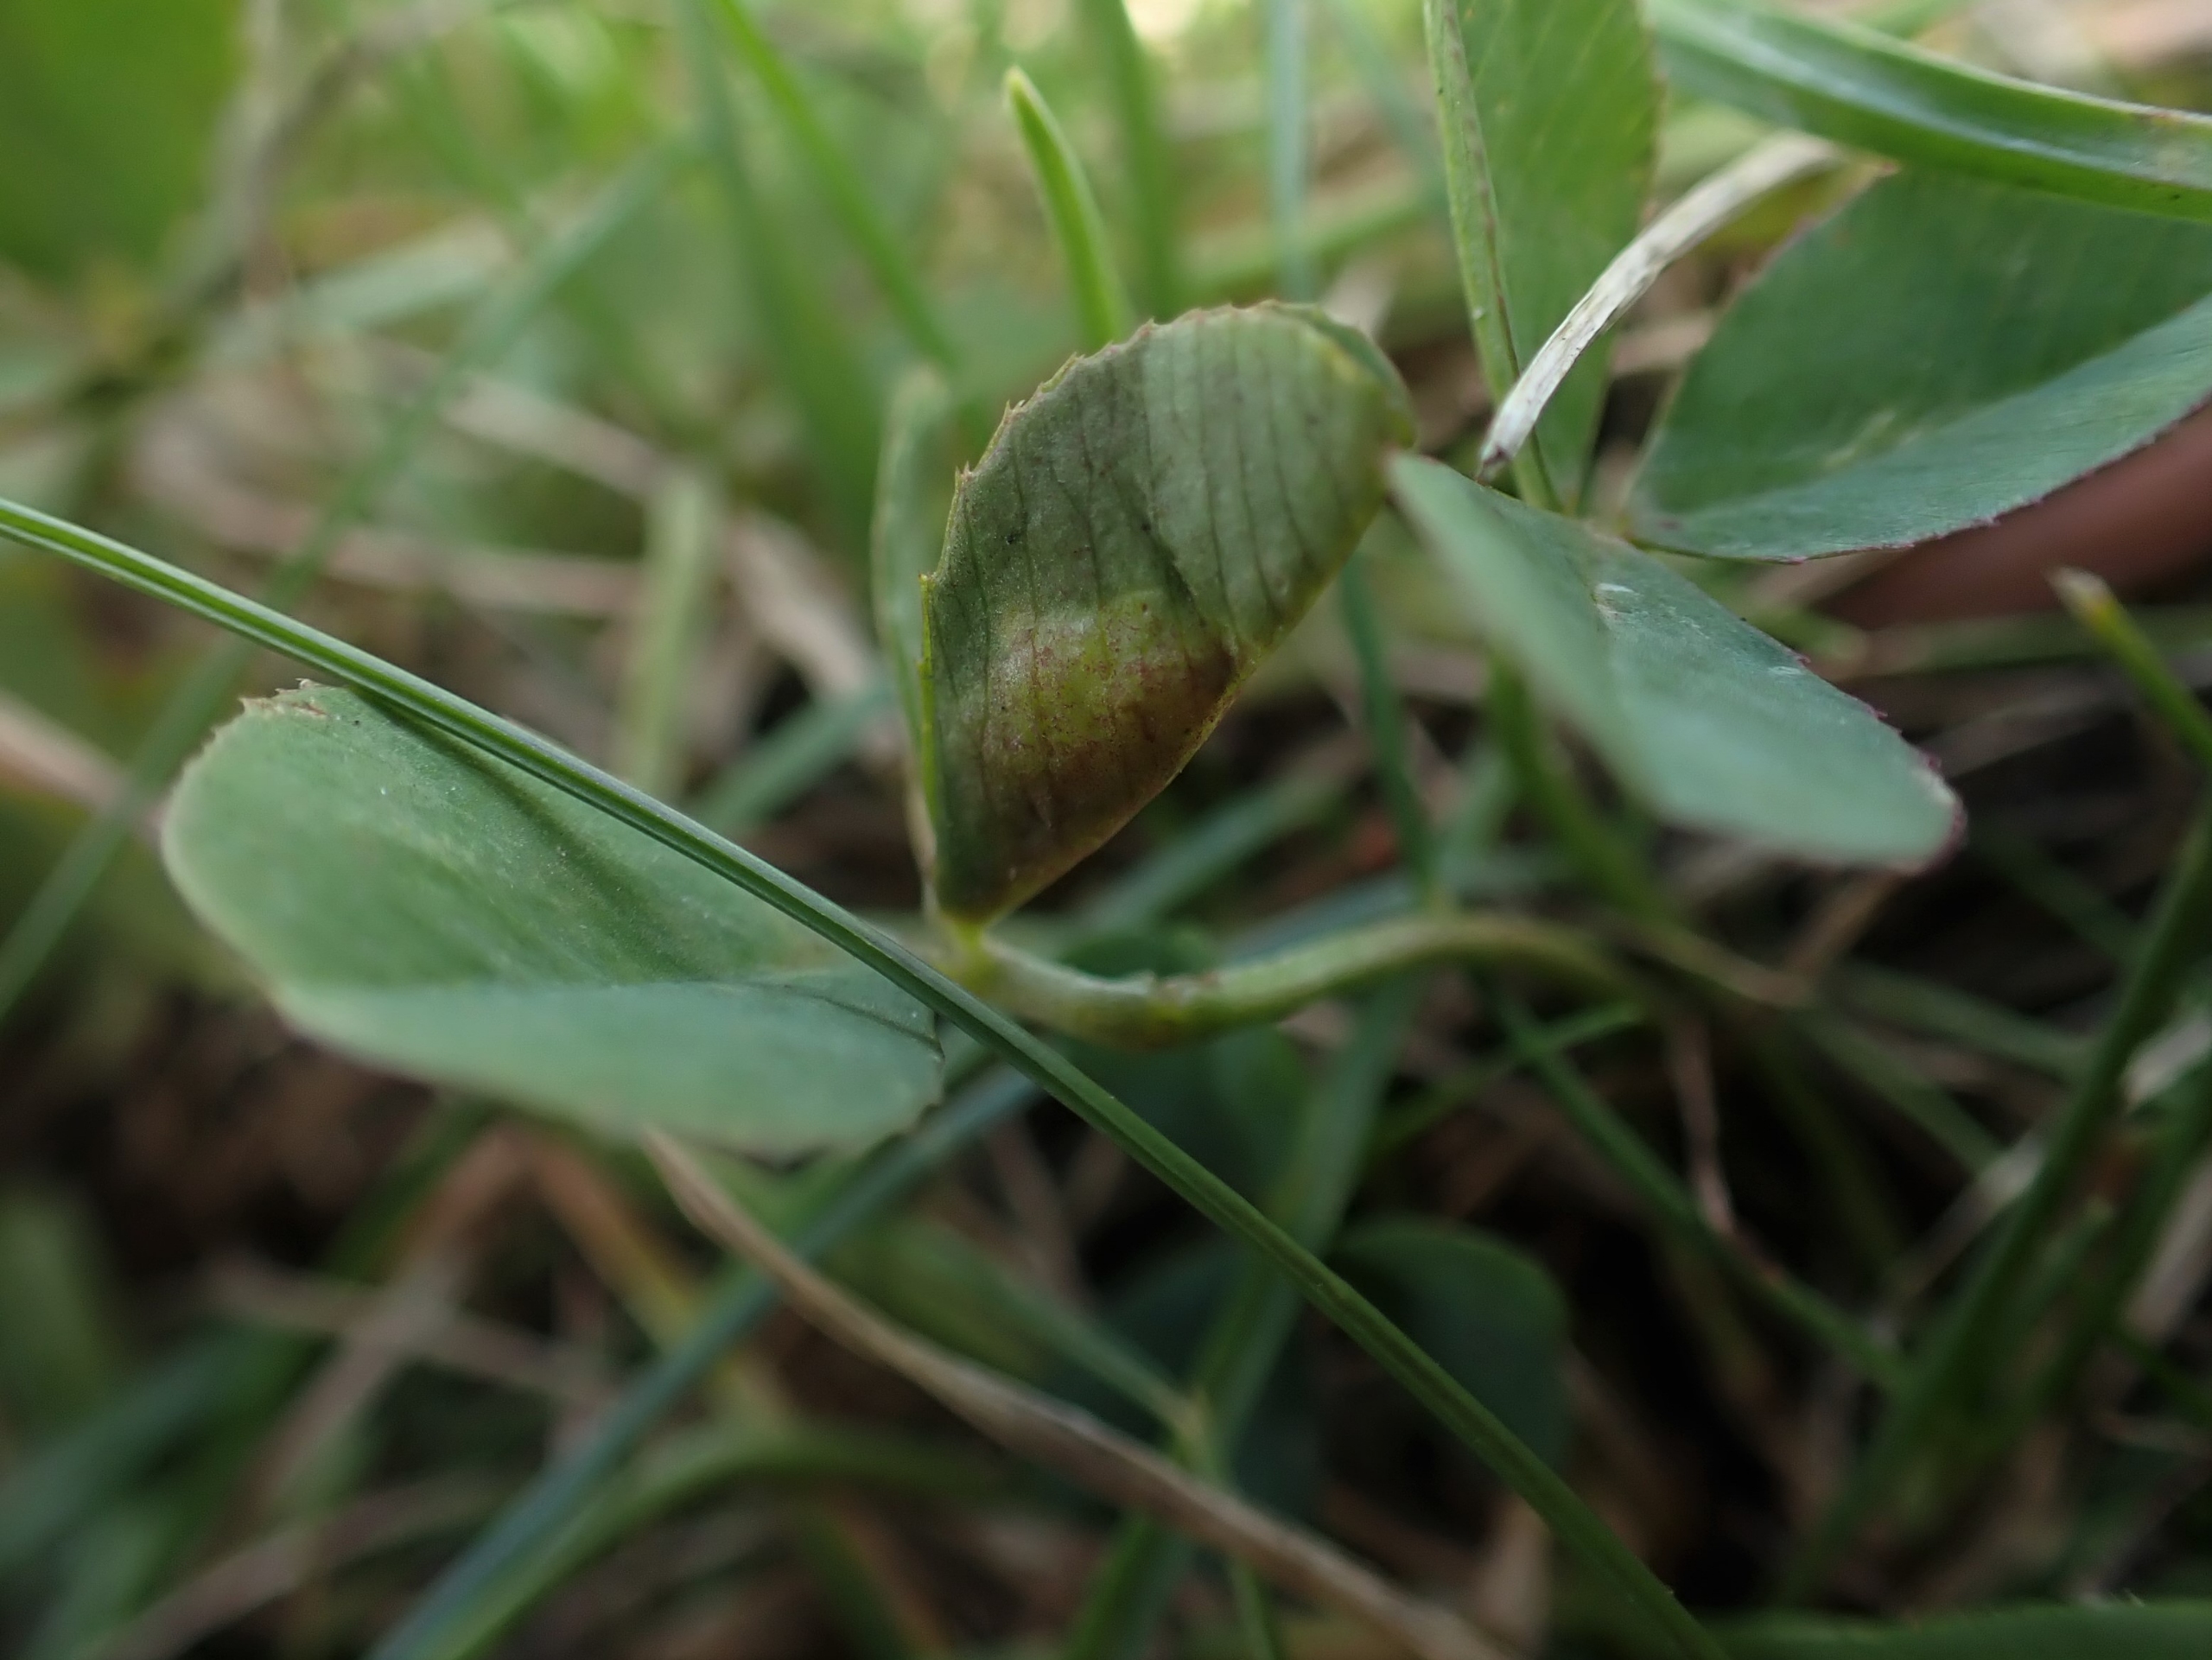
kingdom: Animalia
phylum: Arthropoda
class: Insecta
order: Diptera
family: Cecidomyiidae
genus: Dasineura
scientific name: Dasineura trifolii
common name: Kløverbladgalmyg
